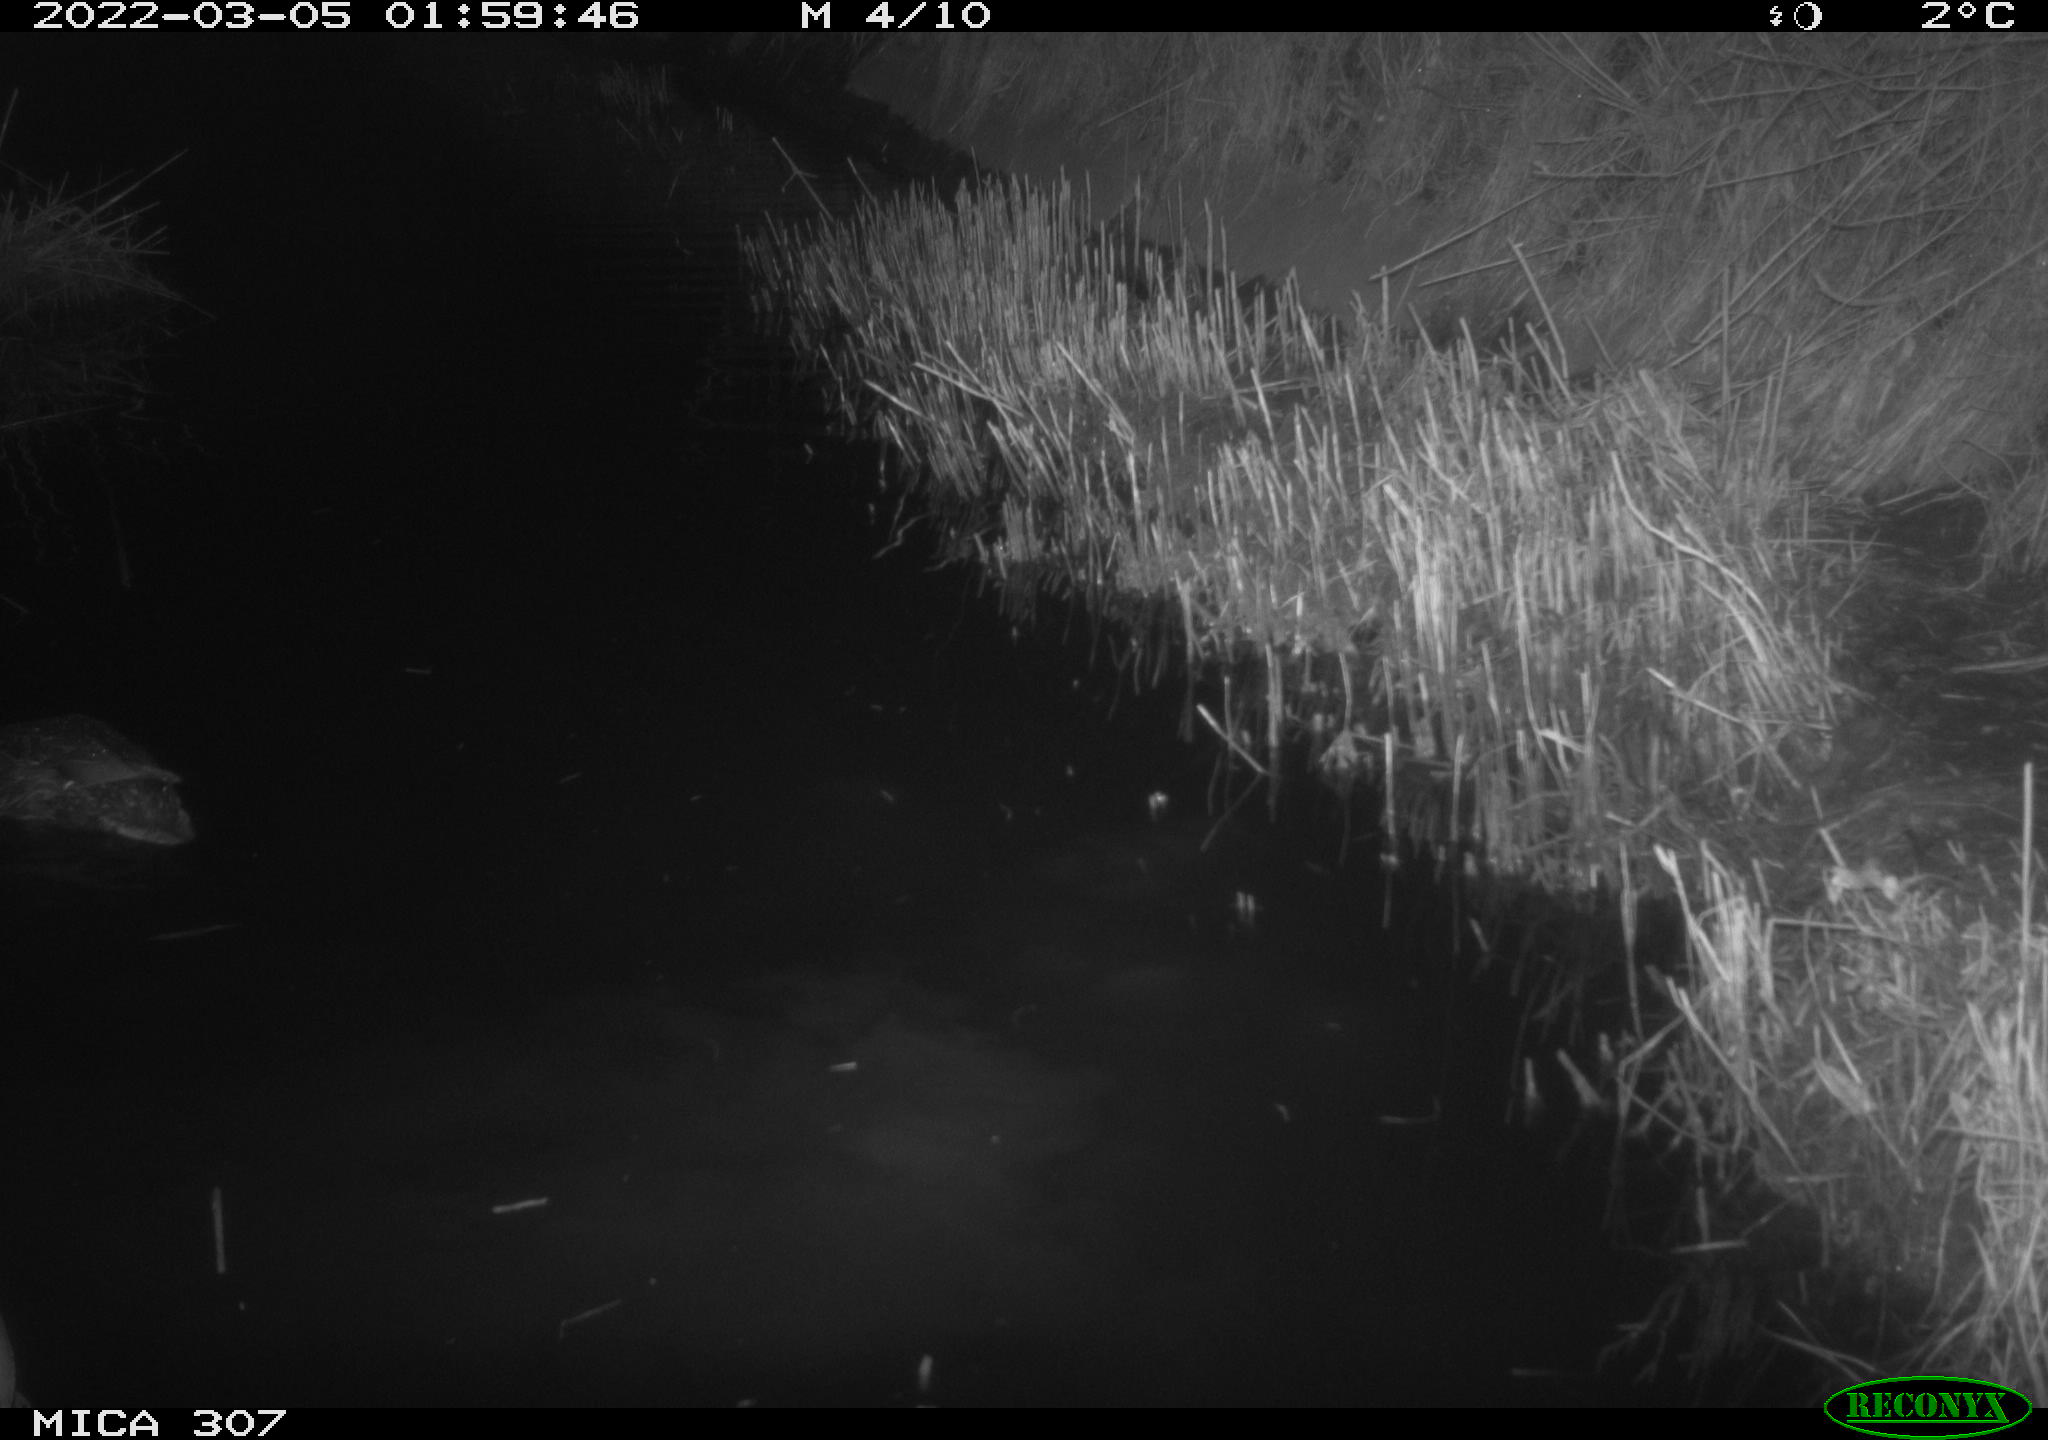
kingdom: Animalia
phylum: Chordata
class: Aves
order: Anseriformes
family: Anatidae
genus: Anas
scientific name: Anas platyrhynchos
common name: Mallard
